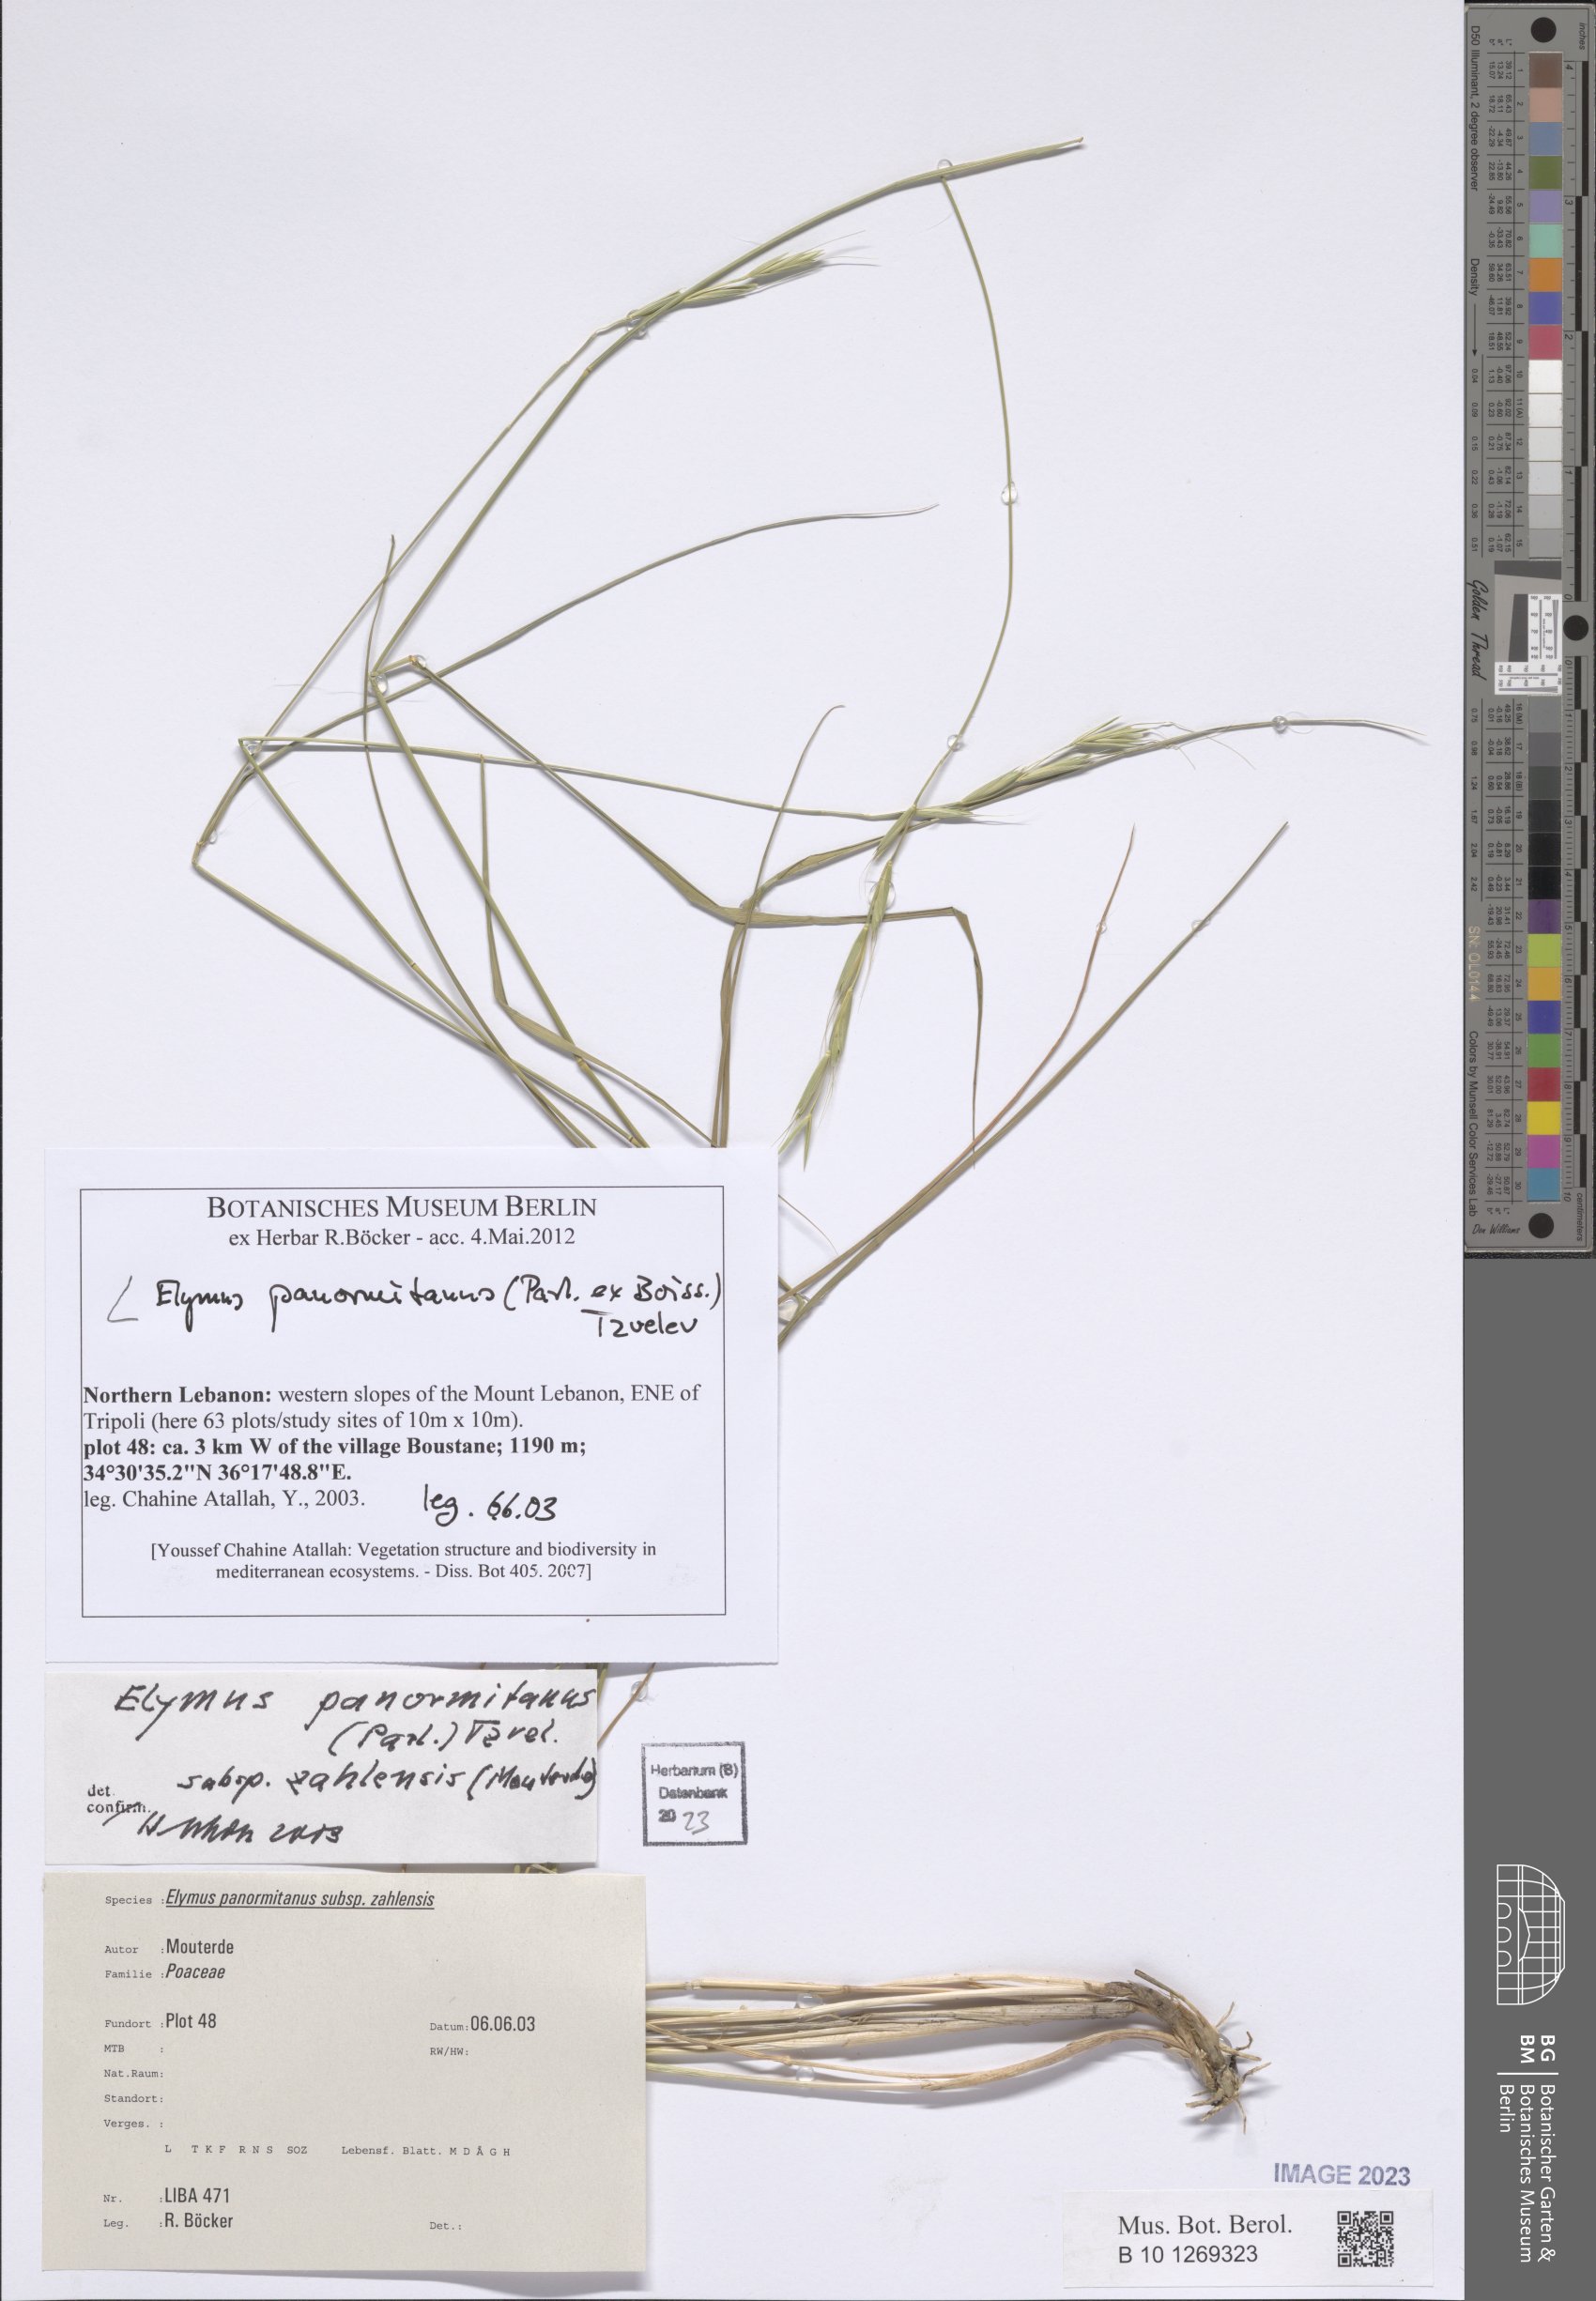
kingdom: Plantae
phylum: Tracheophyta
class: Liliopsida
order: Poales
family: Poaceae
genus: Elymus
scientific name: Elymus panormitanus
